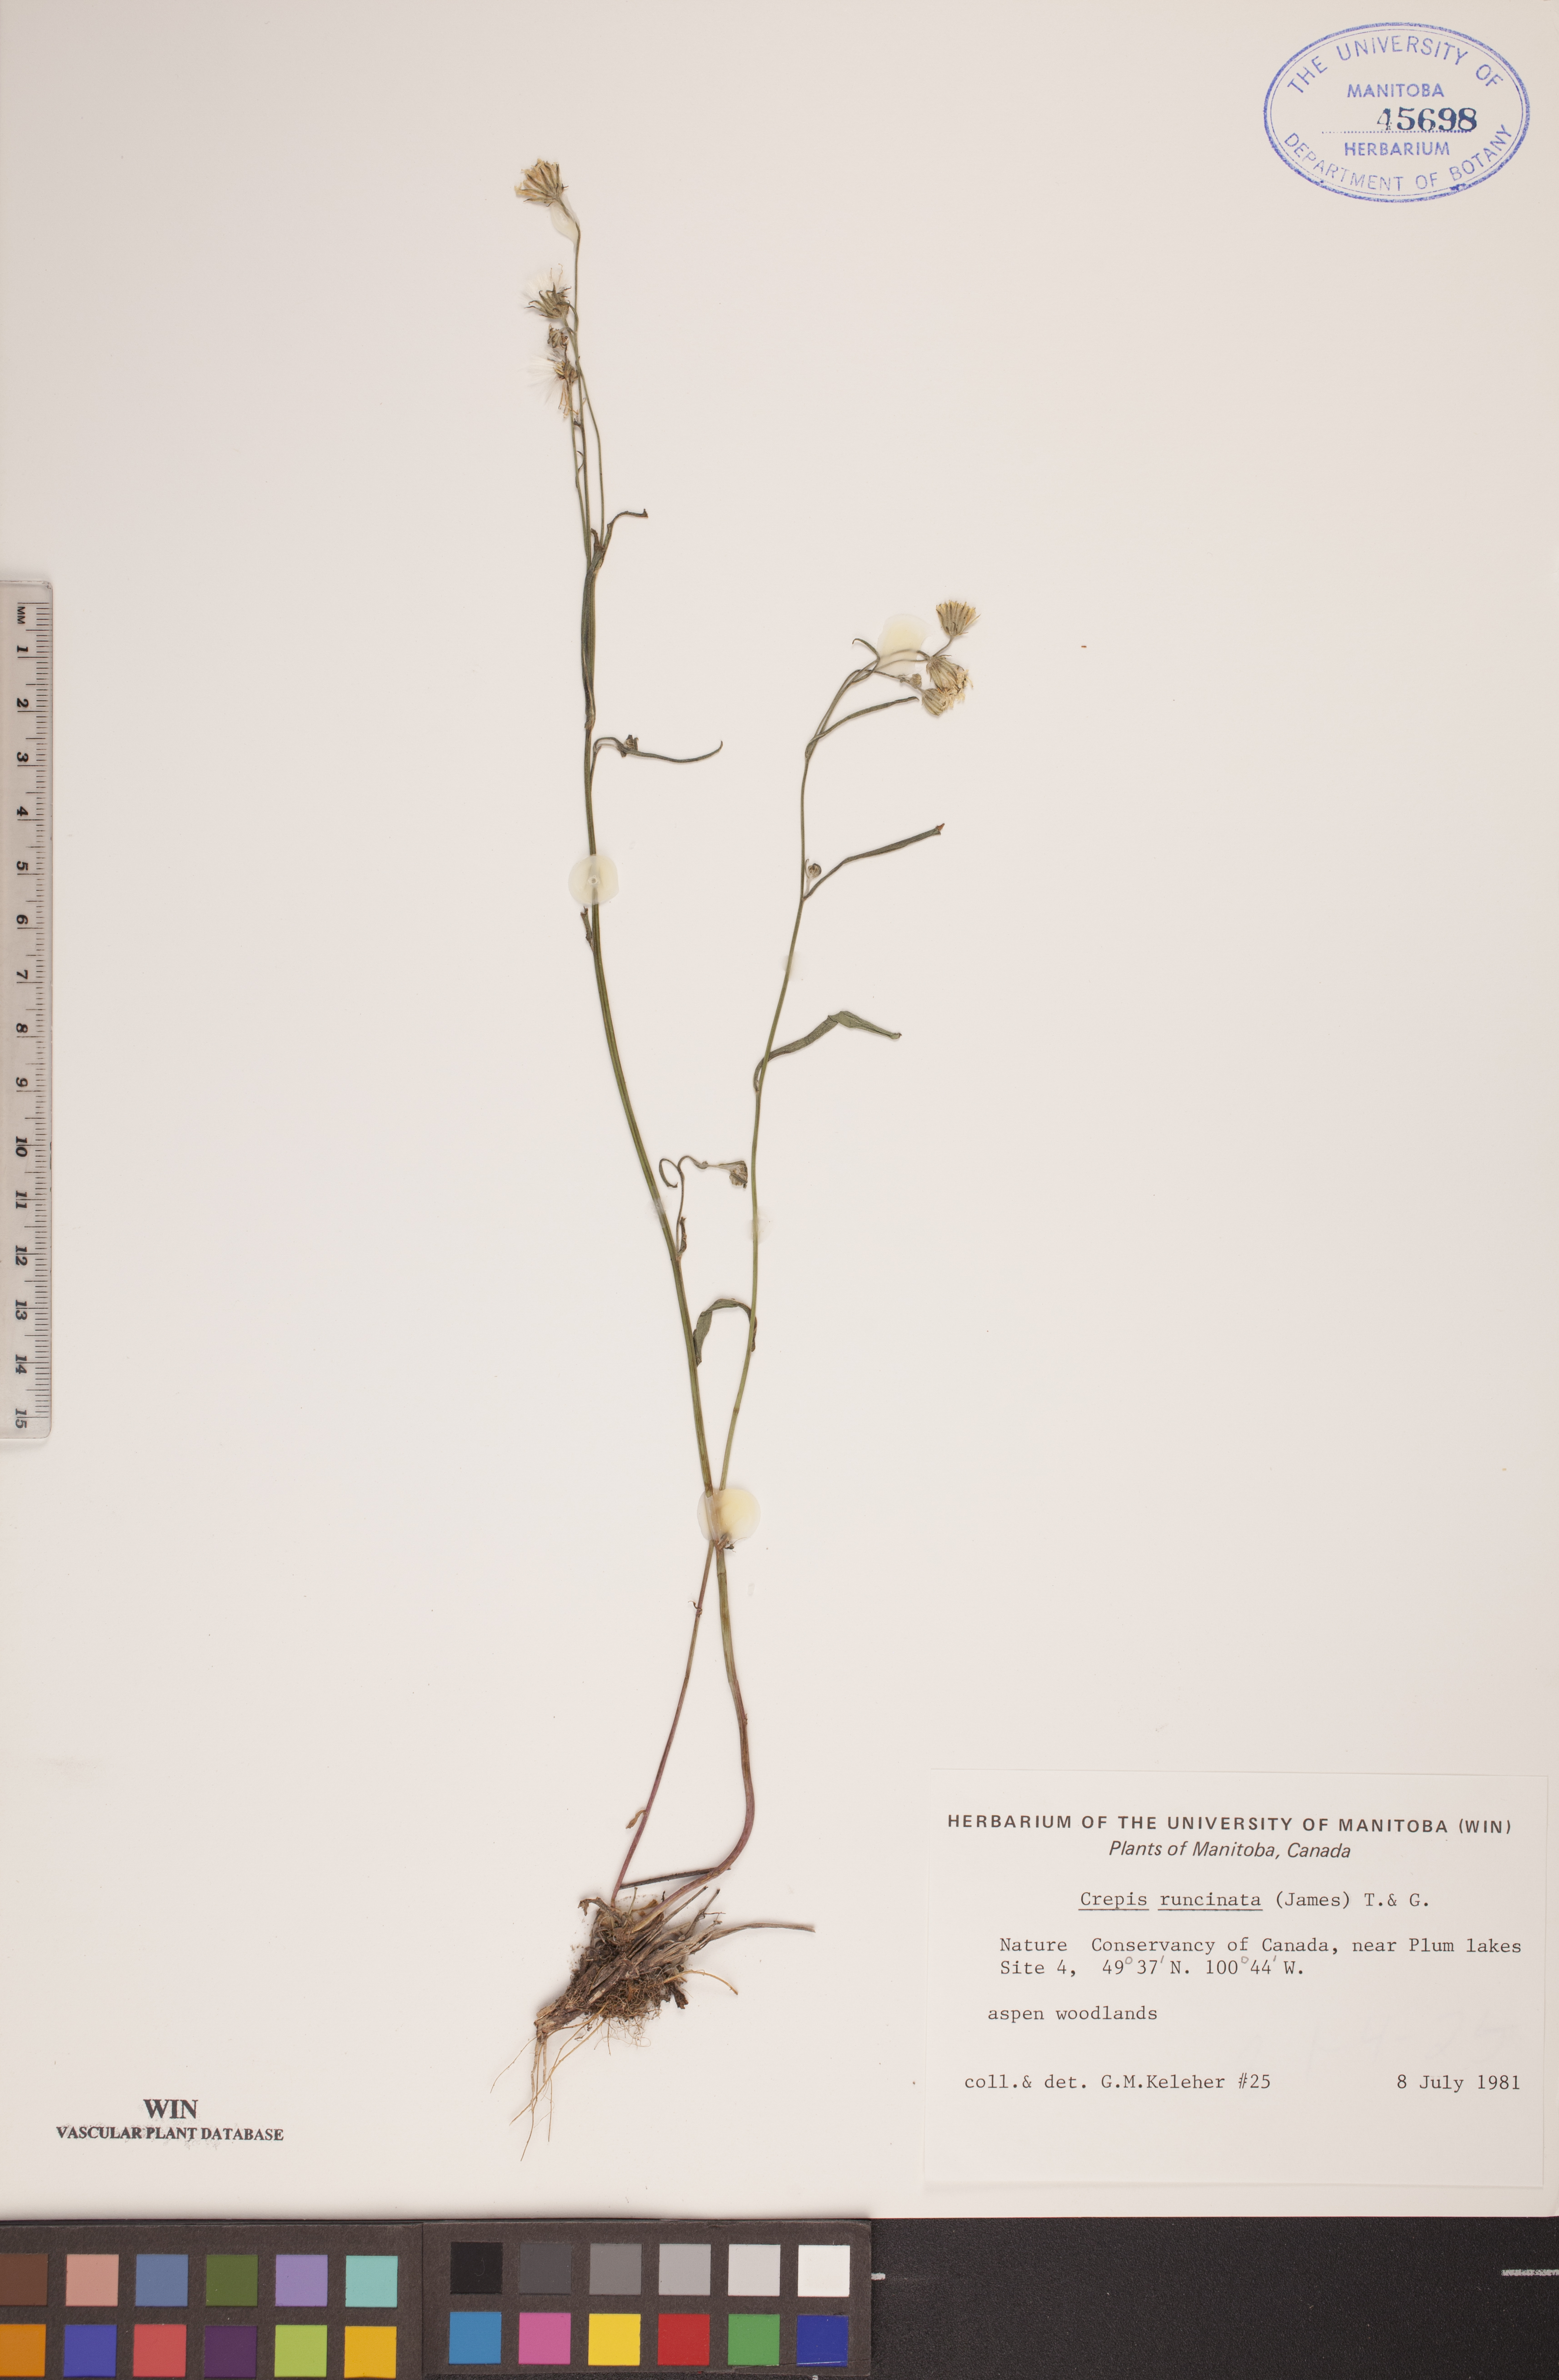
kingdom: Plantae
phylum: Tracheophyta
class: Magnoliopsida
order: Asterales
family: Asteraceae
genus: Crepis
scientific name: Crepis runcinata
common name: Dandelion hawksbeard
